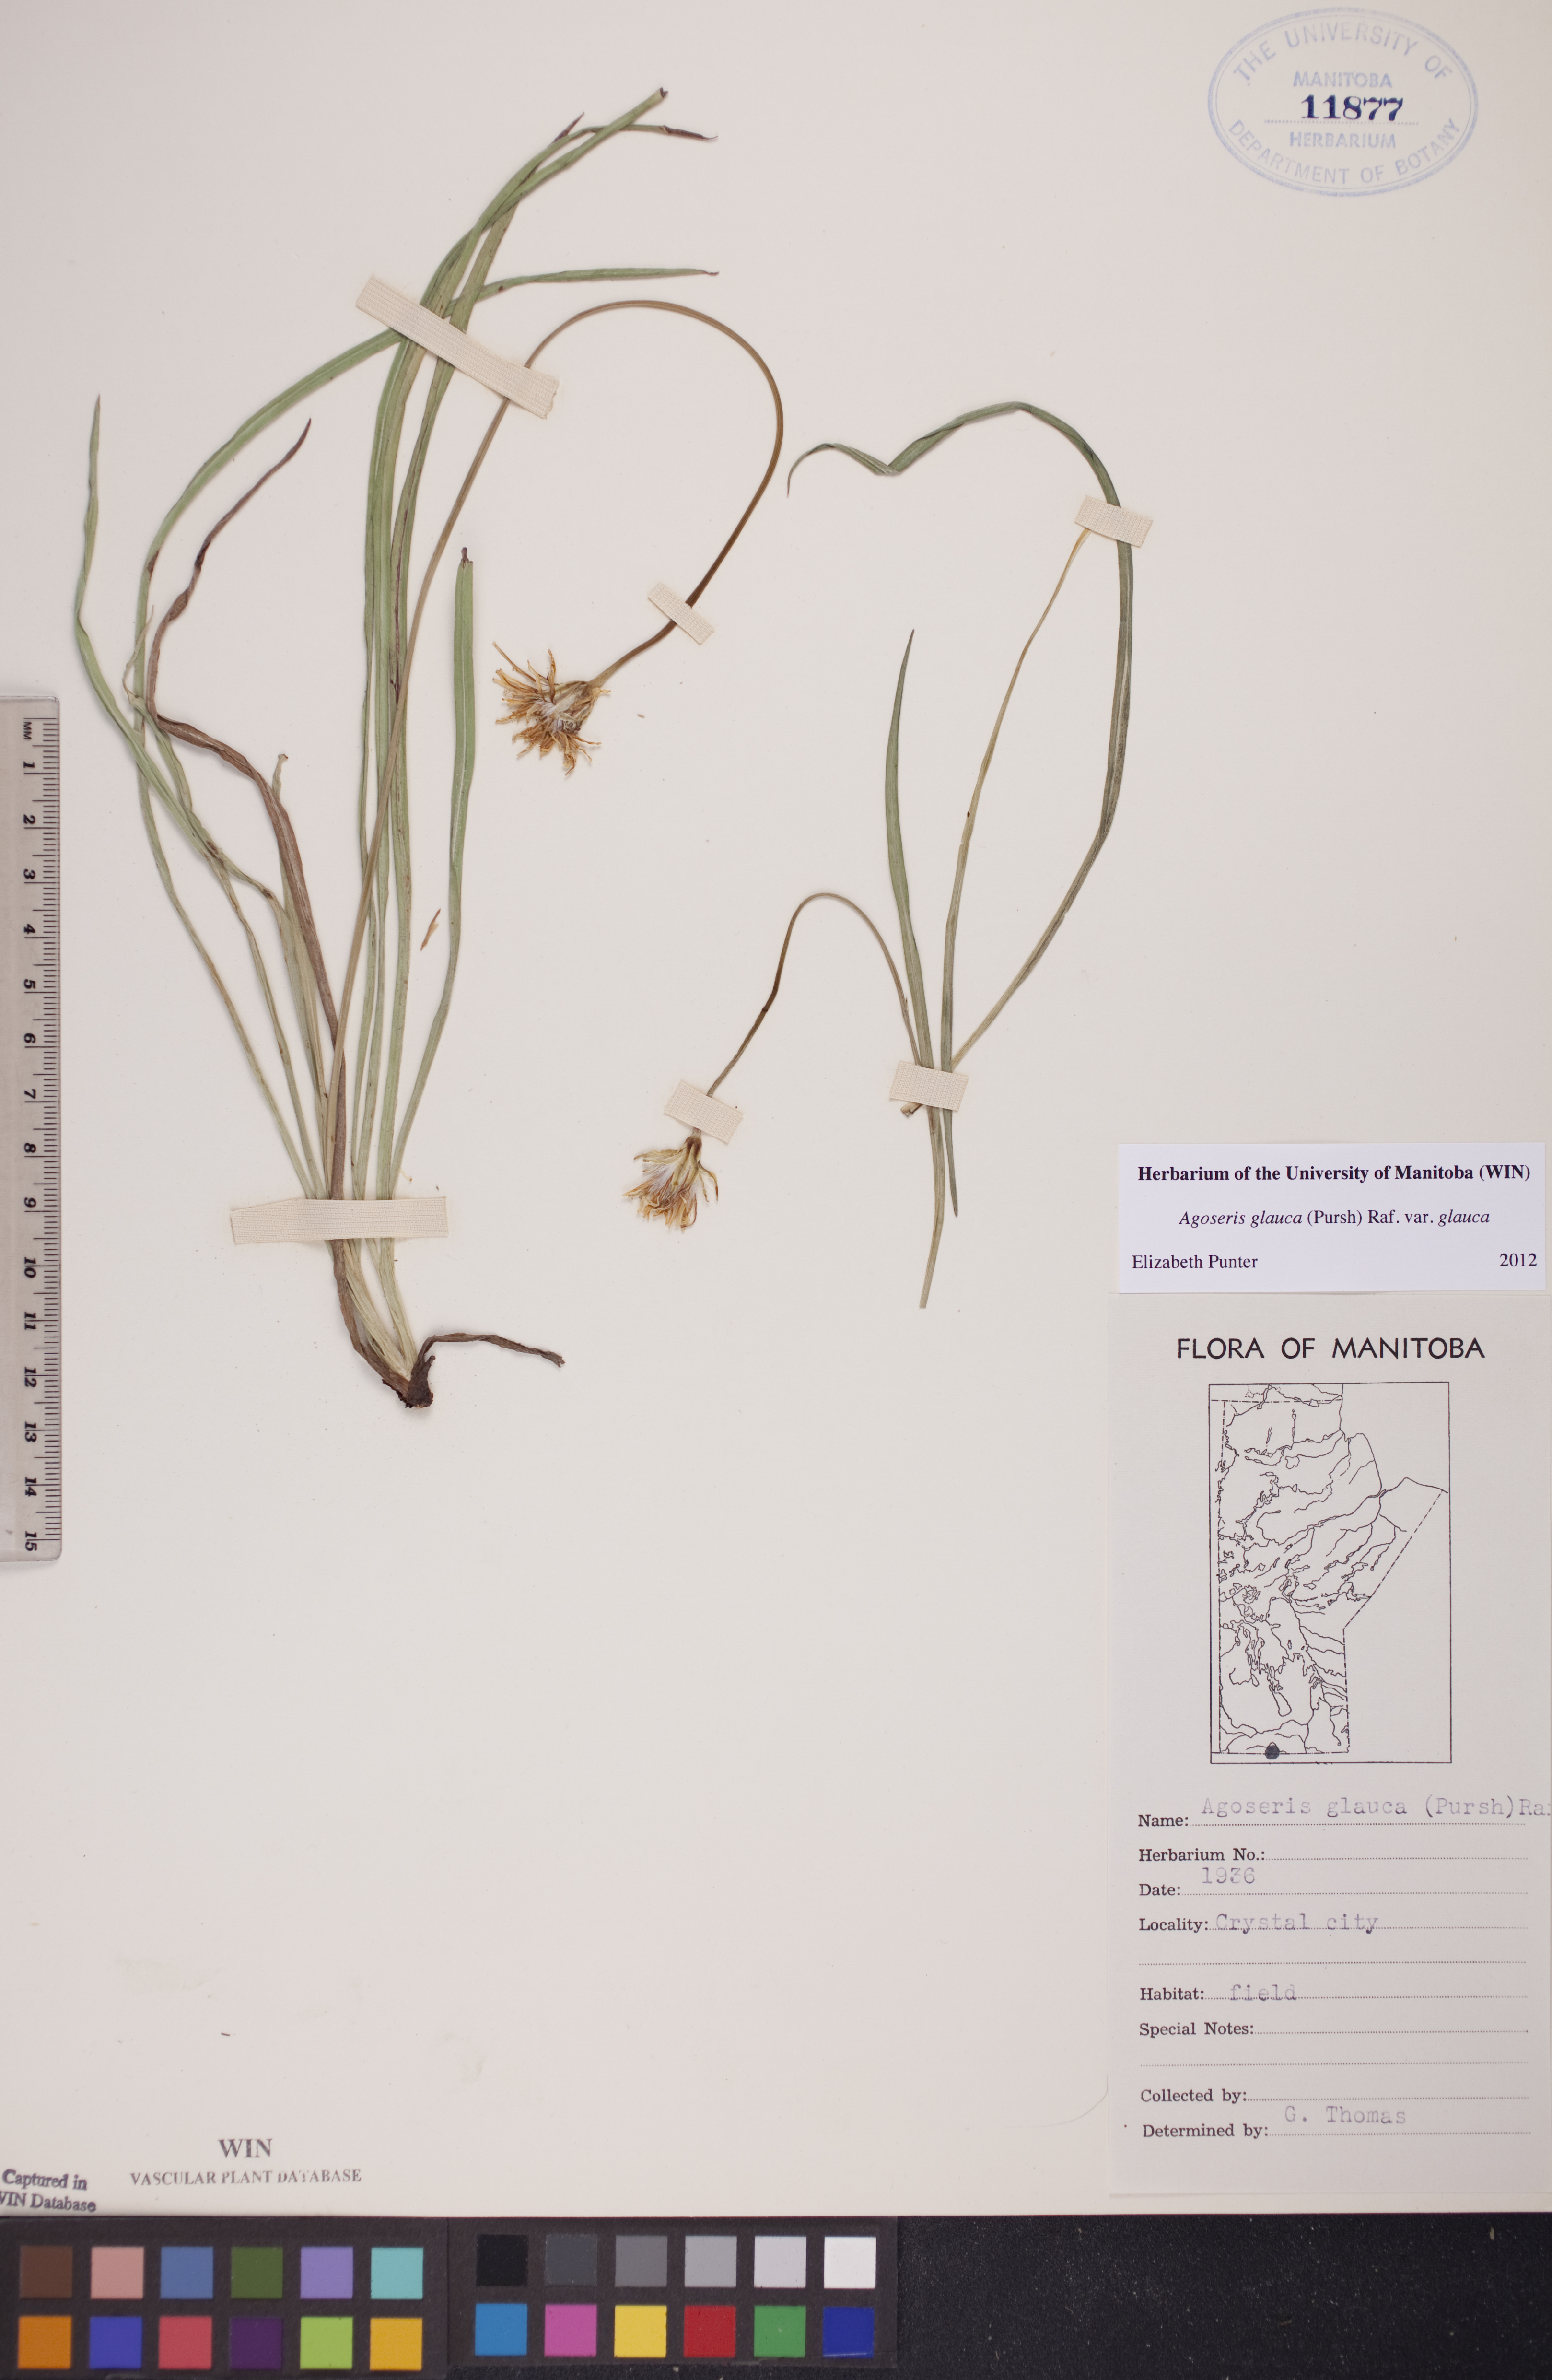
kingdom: Plantae
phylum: Tracheophyta
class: Magnoliopsida
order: Asterales
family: Asteraceae
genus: Agoseris
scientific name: Agoseris glauca
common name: Prairie agoseris
